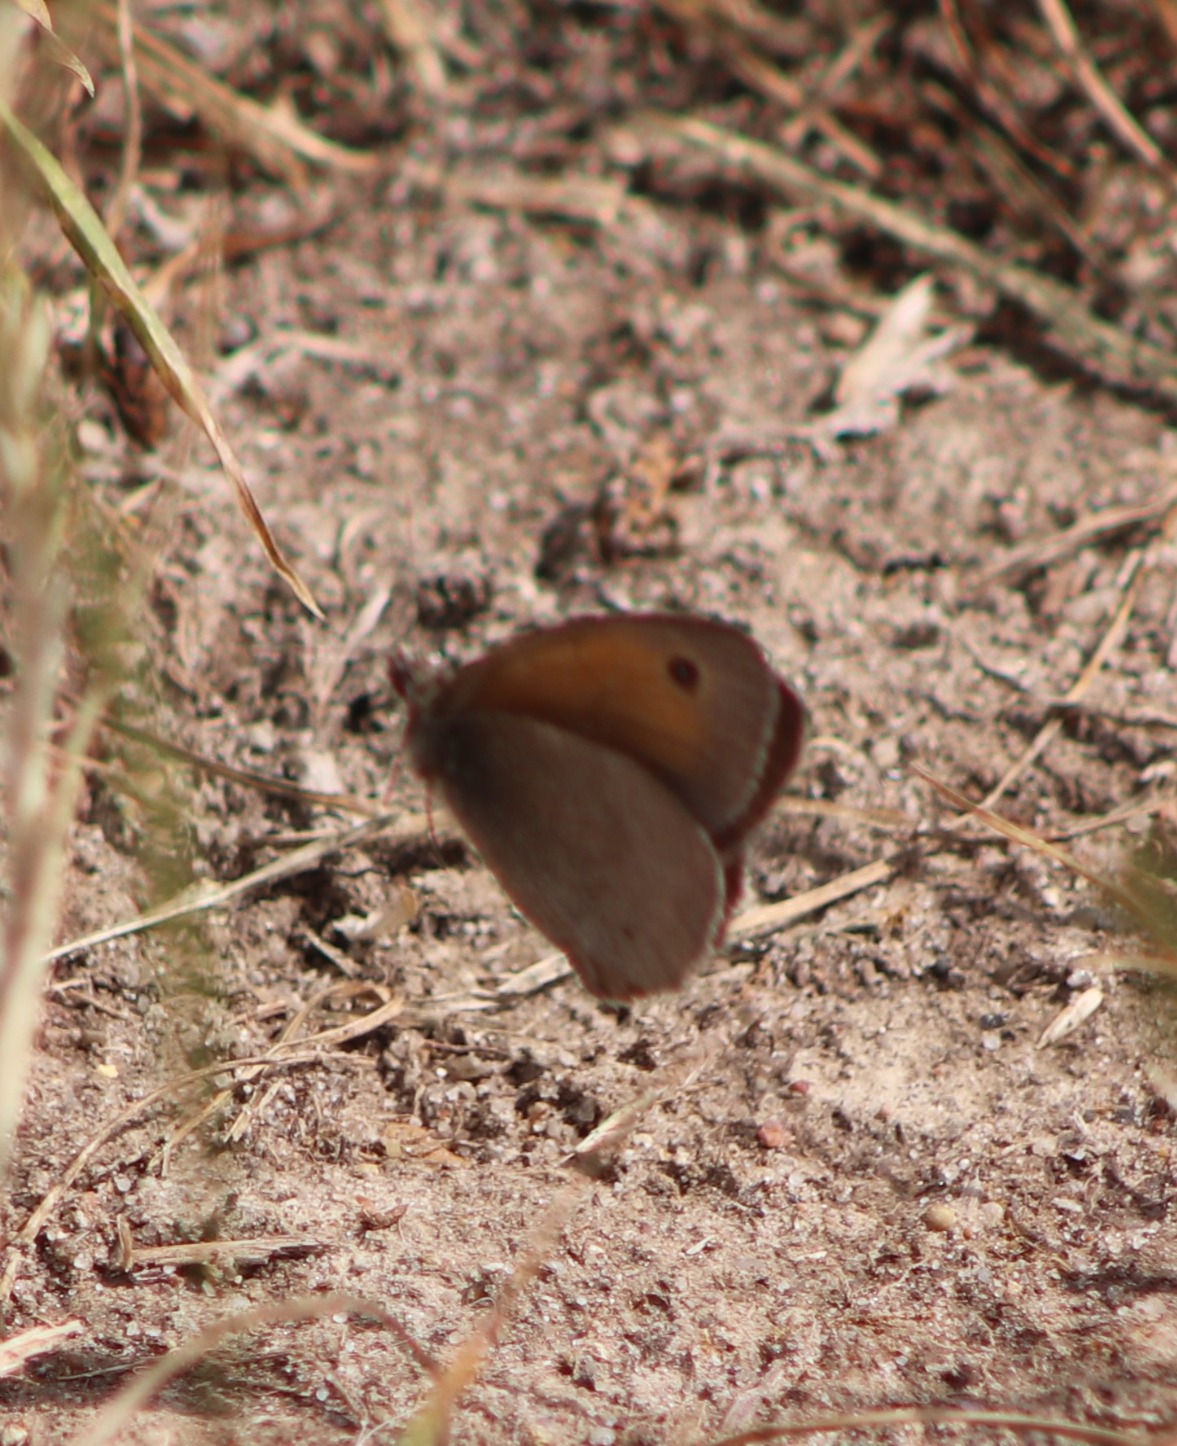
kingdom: Animalia
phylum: Arthropoda
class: Insecta
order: Lepidoptera
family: Nymphalidae
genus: Maniola
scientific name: Maniola jurtina
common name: Græsrandøje
